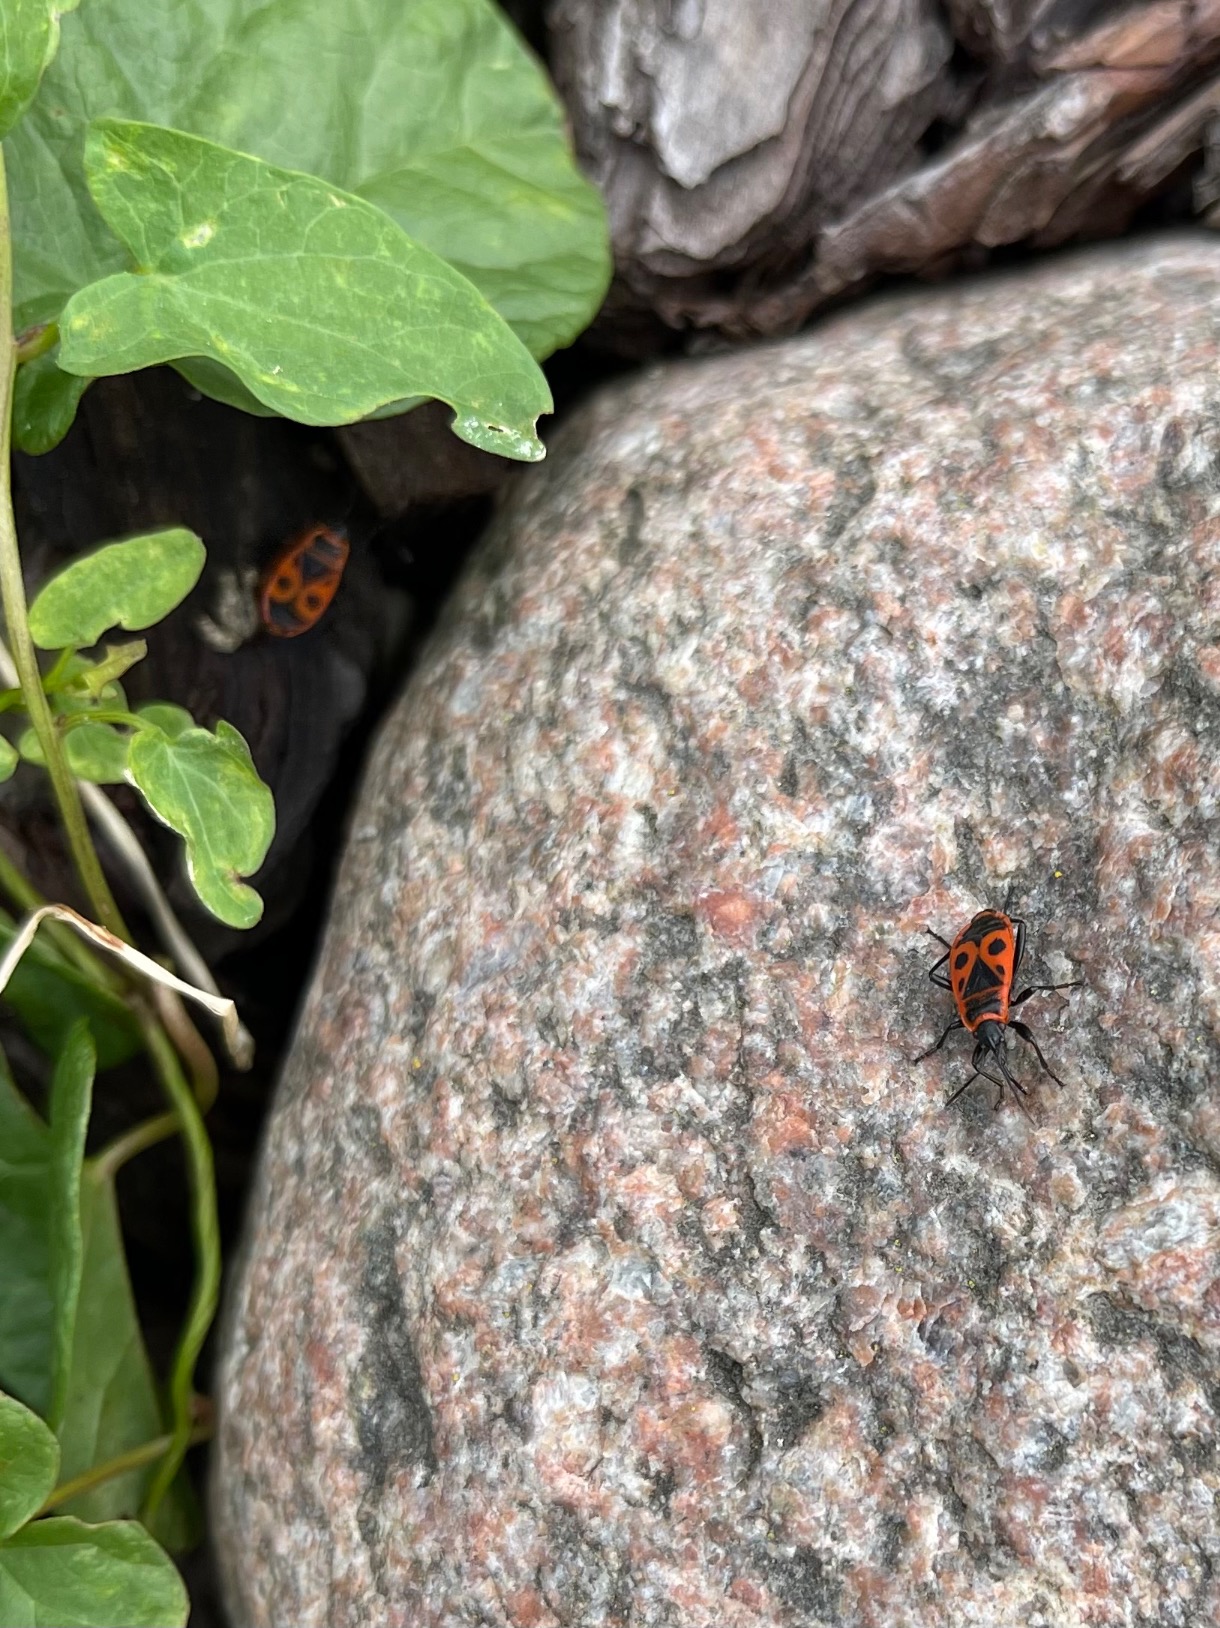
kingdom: Animalia
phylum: Arthropoda
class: Insecta
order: Hemiptera
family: Pyrrhocoridae
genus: Pyrrhocoris
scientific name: Pyrrhocoris apterus
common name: Ildtæge
